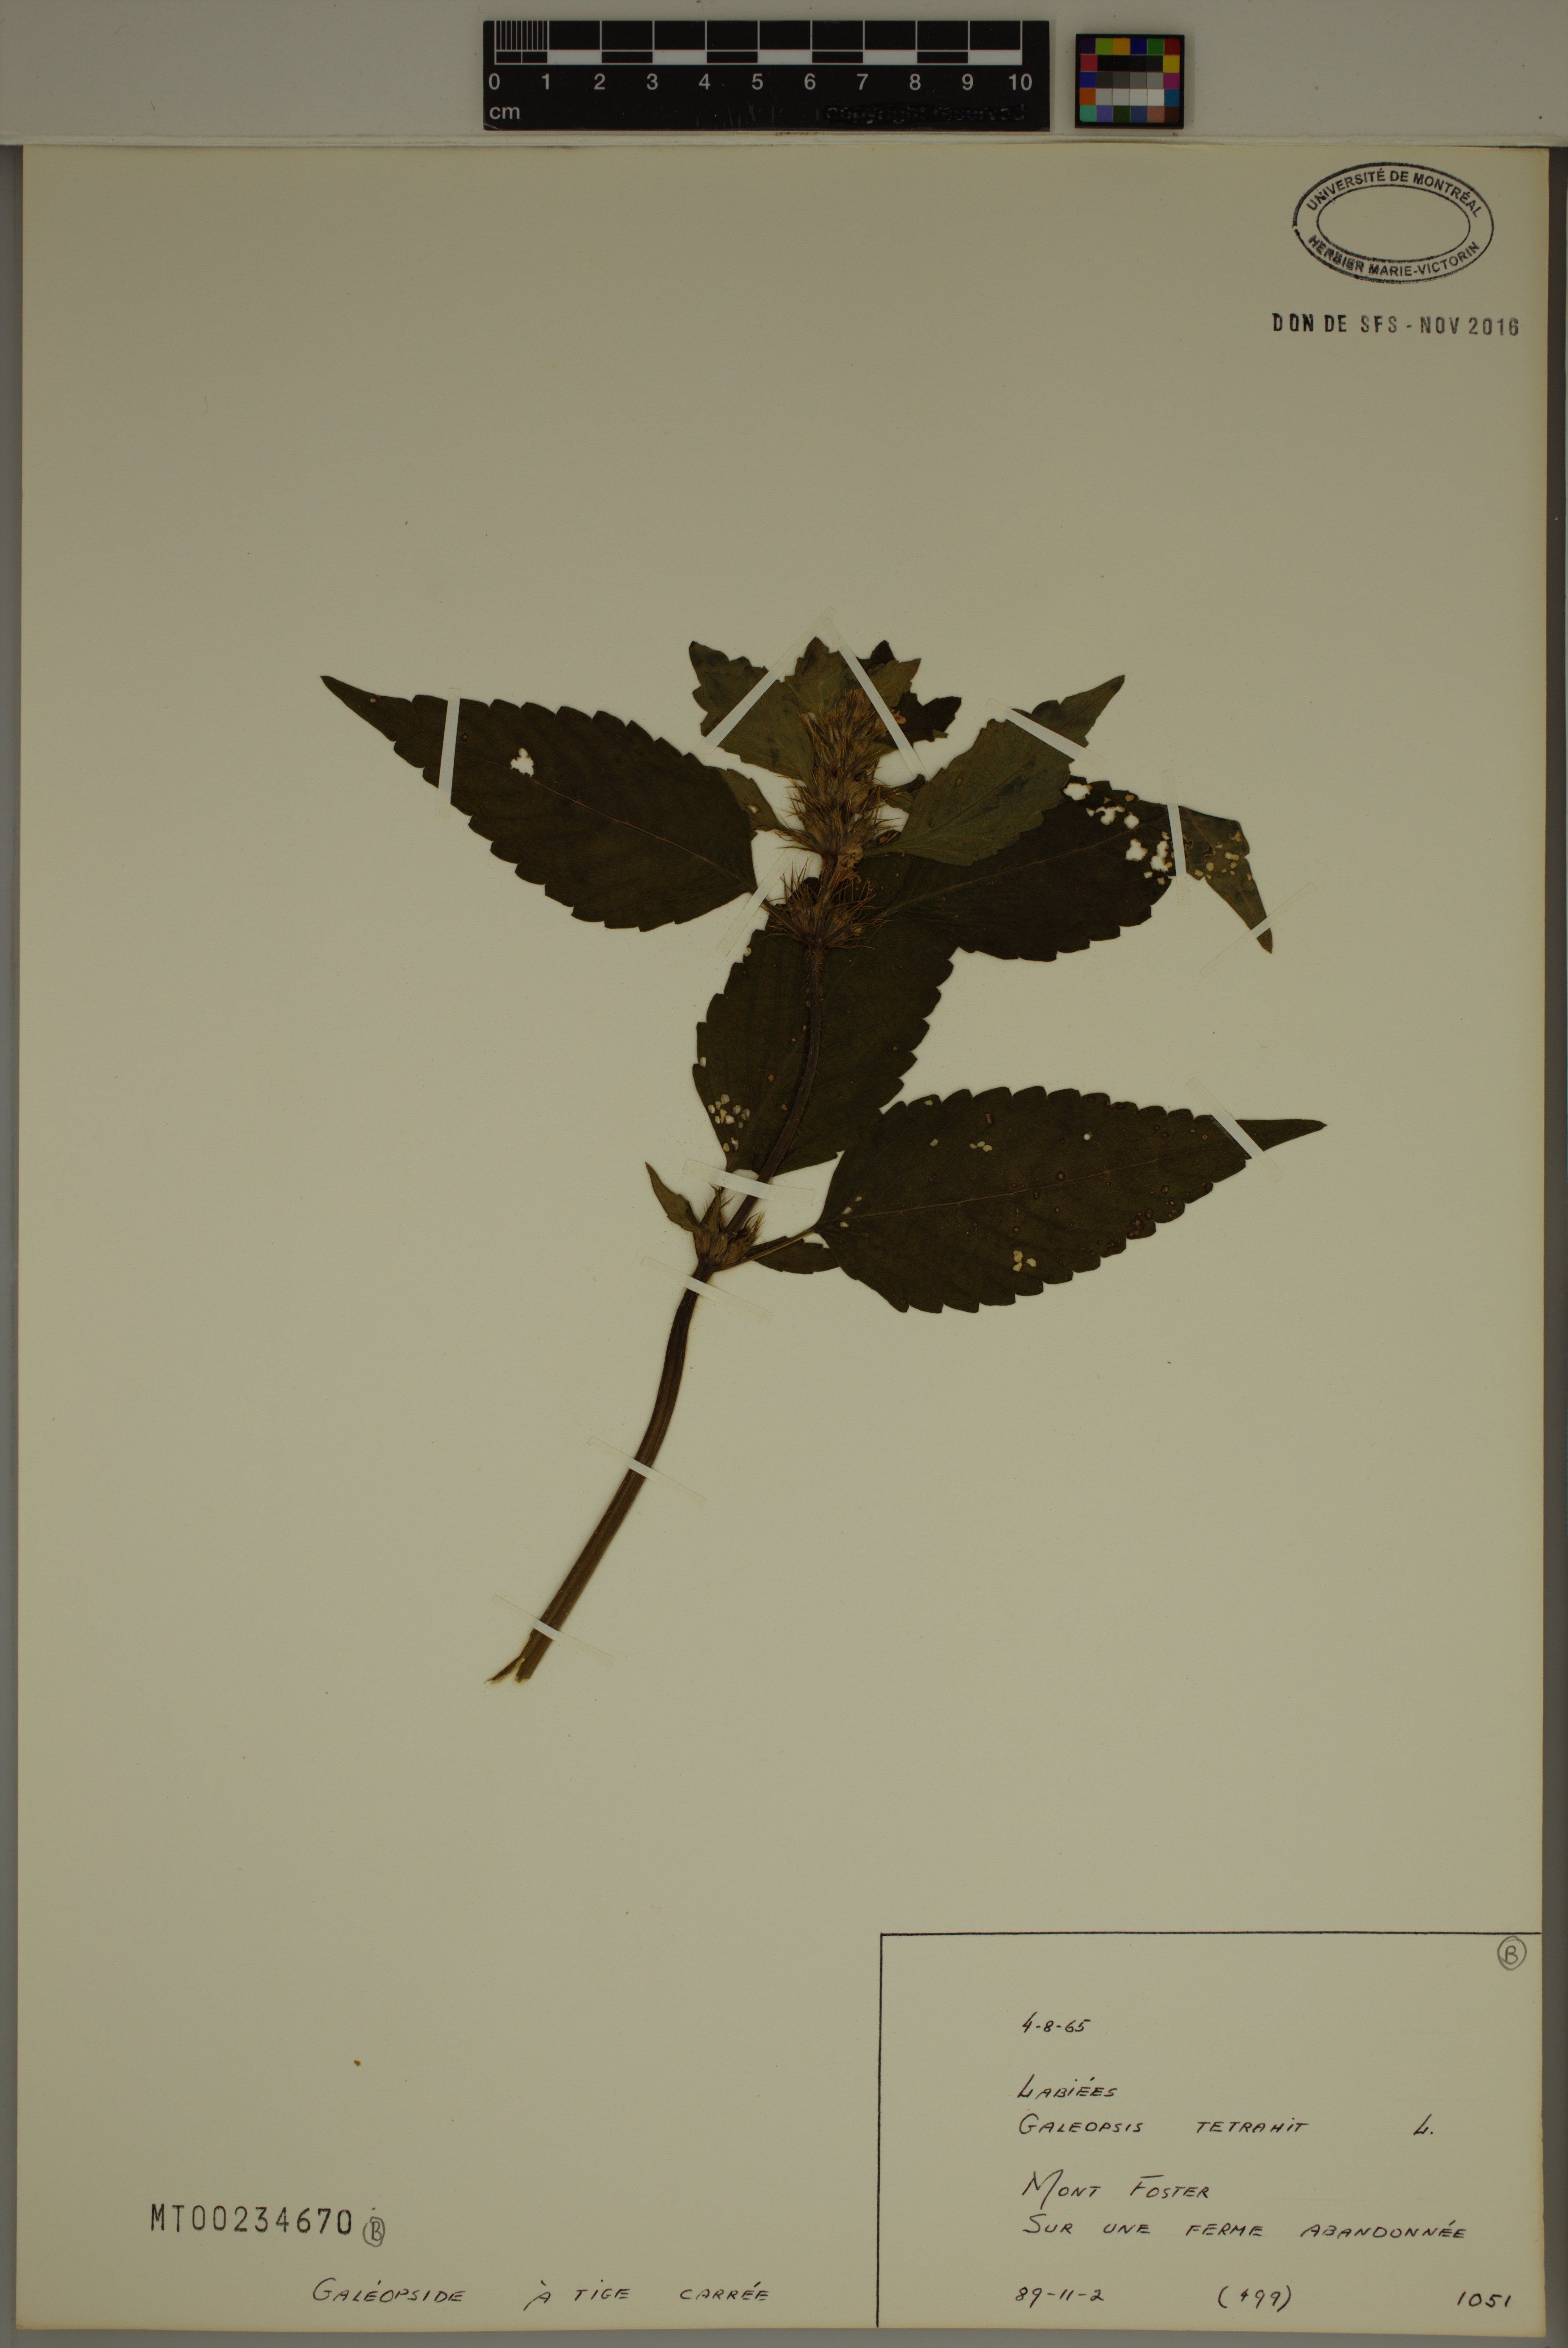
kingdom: Plantae
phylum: Tracheophyta
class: Magnoliopsida
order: Lamiales
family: Lamiaceae
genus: Galeopsis
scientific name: Galeopsis tetrahit
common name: Common hemp-nettle
